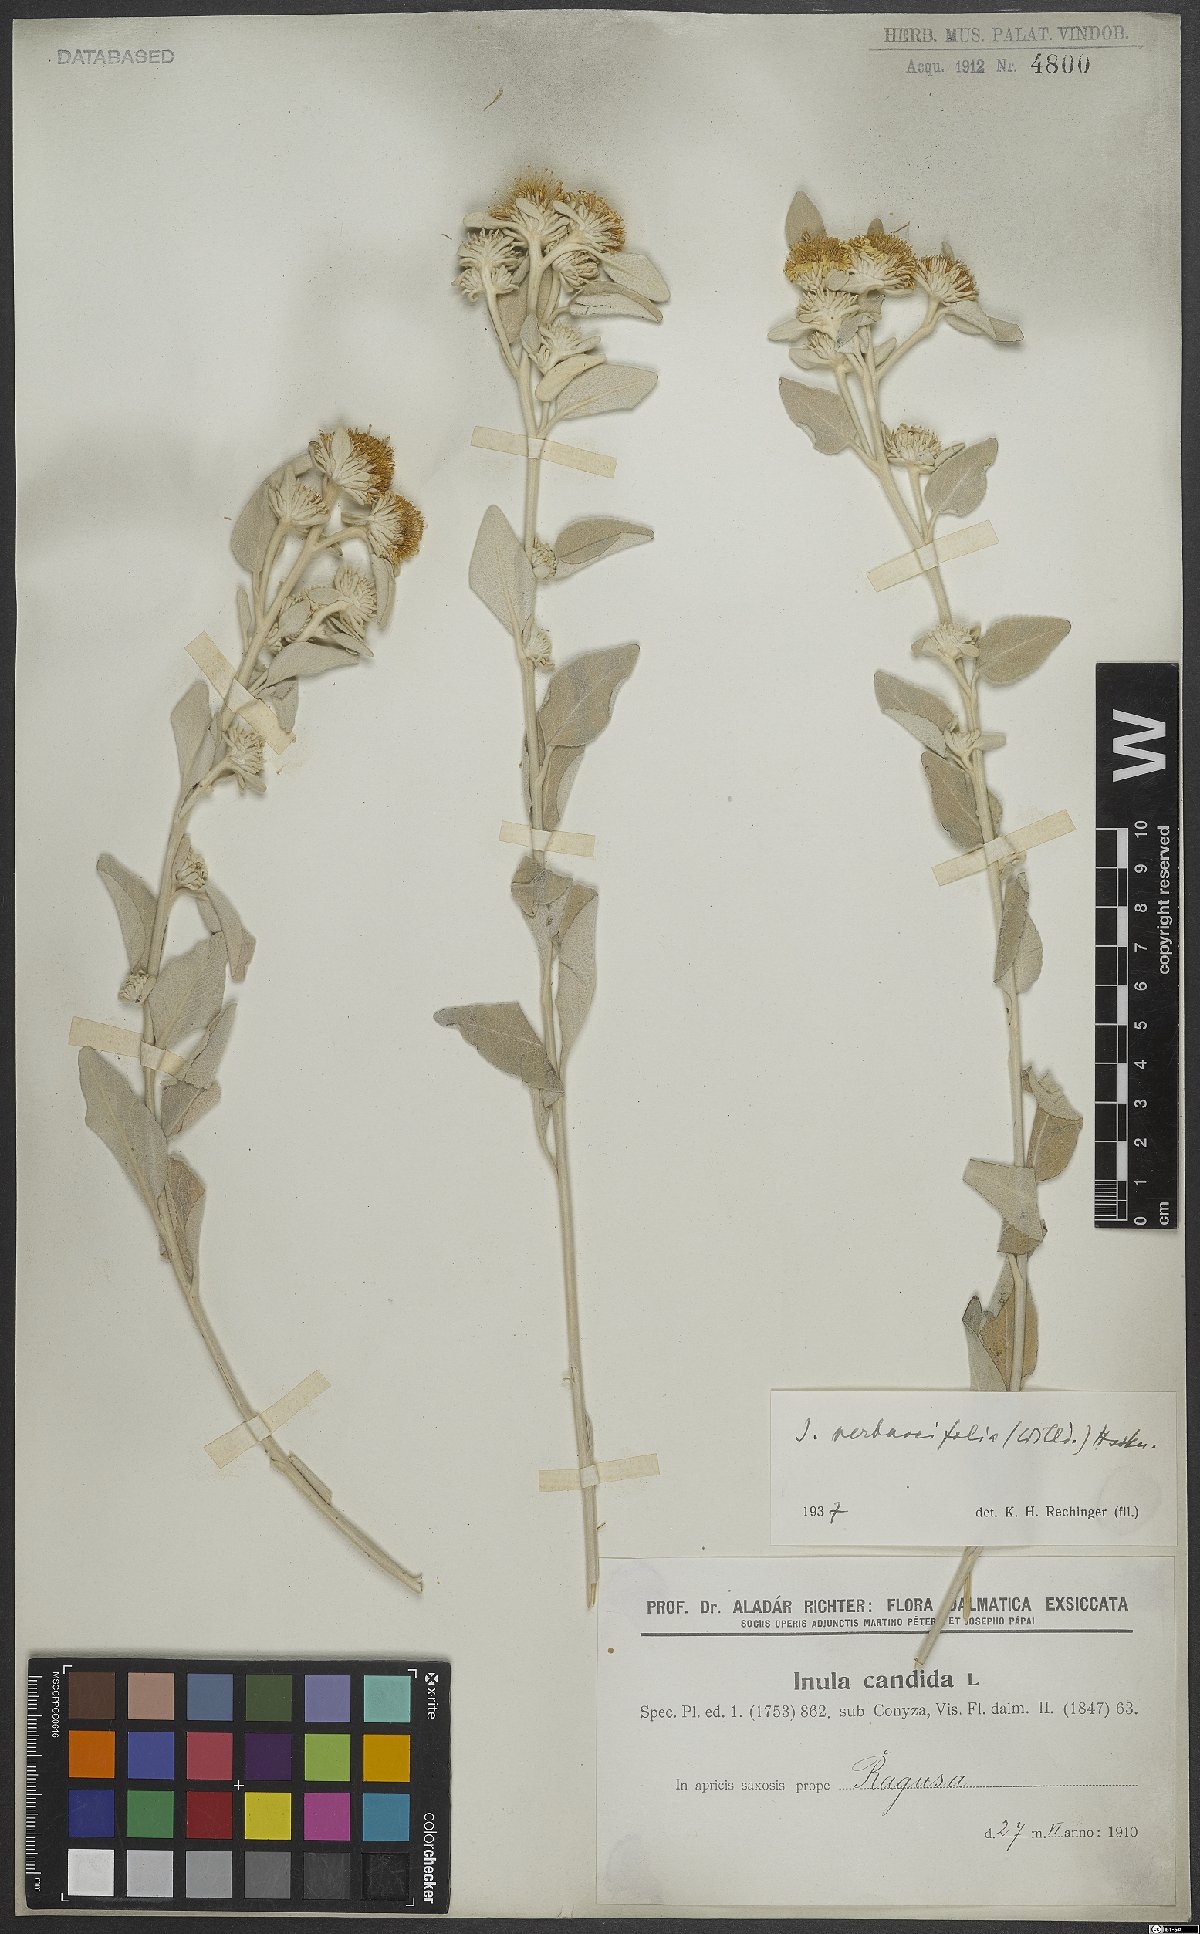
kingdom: Plantae
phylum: Tracheophyta
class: Magnoliopsida
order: Asterales
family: Asteraceae
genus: Pentanema
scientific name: Pentanema verbascifolium
